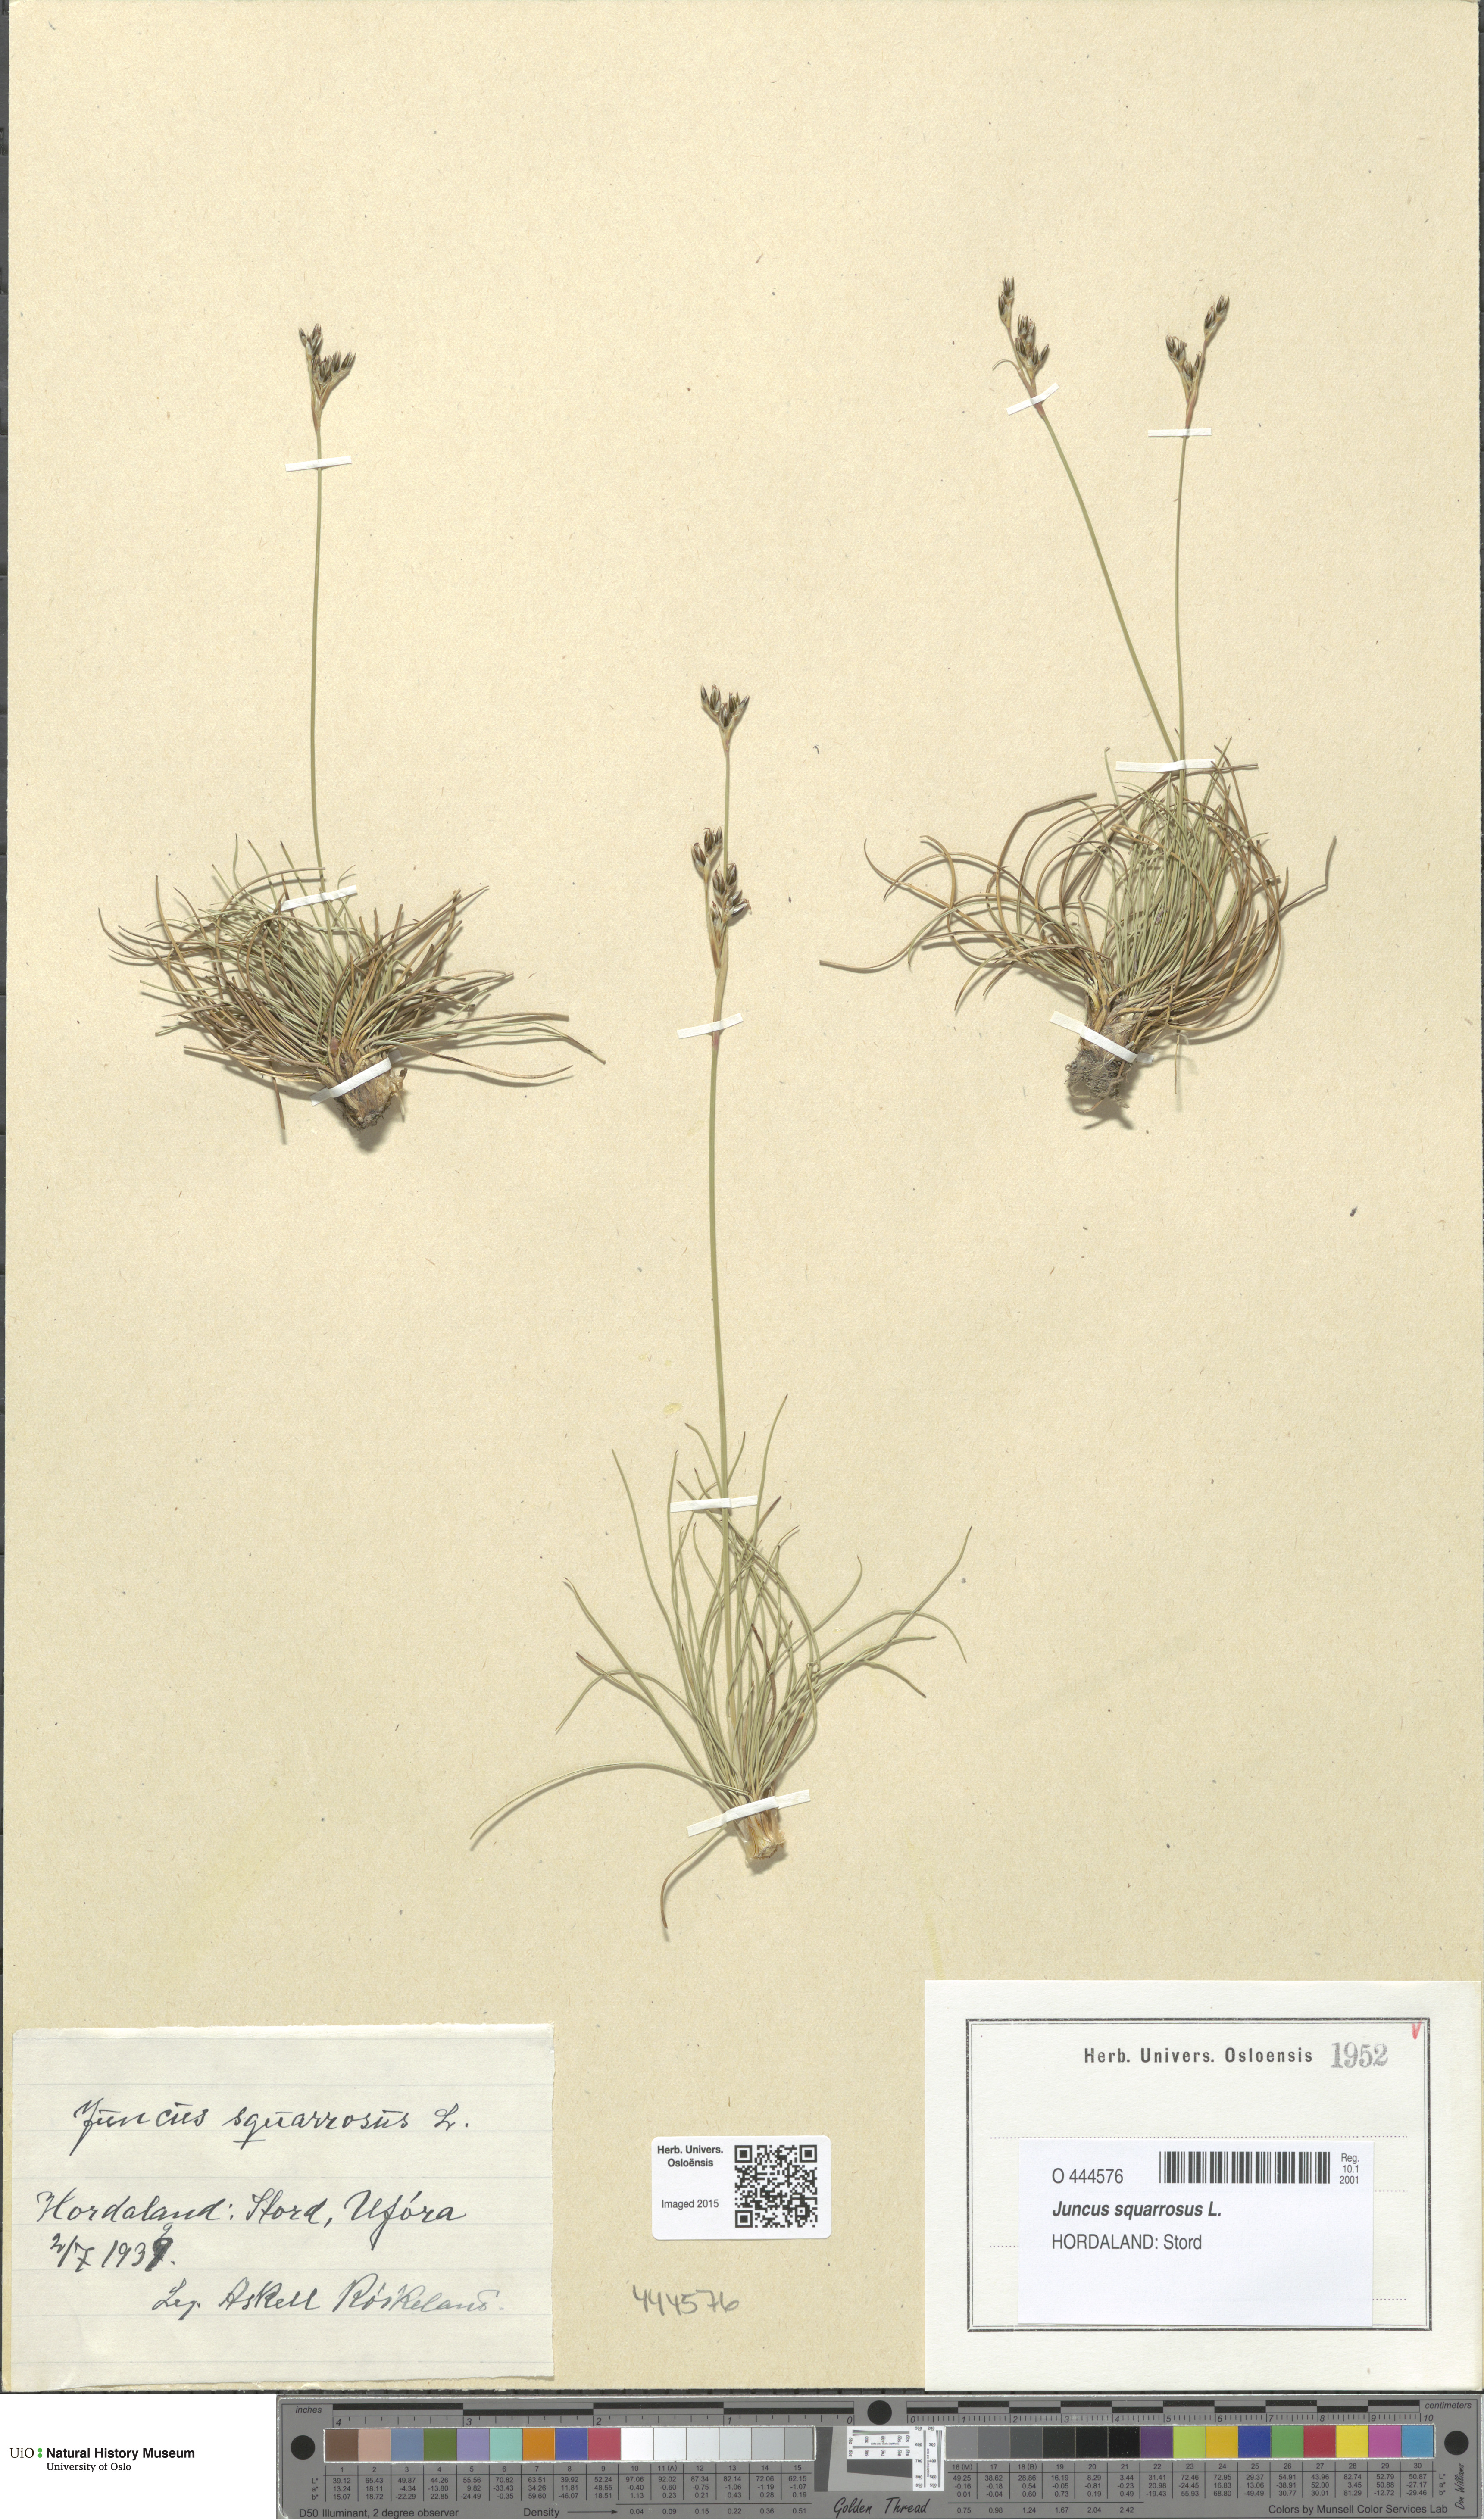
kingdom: Plantae
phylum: Tracheophyta
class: Liliopsida
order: Poales
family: Juncaceae
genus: Juncus
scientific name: Juncus squarrosus
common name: Heath rush
